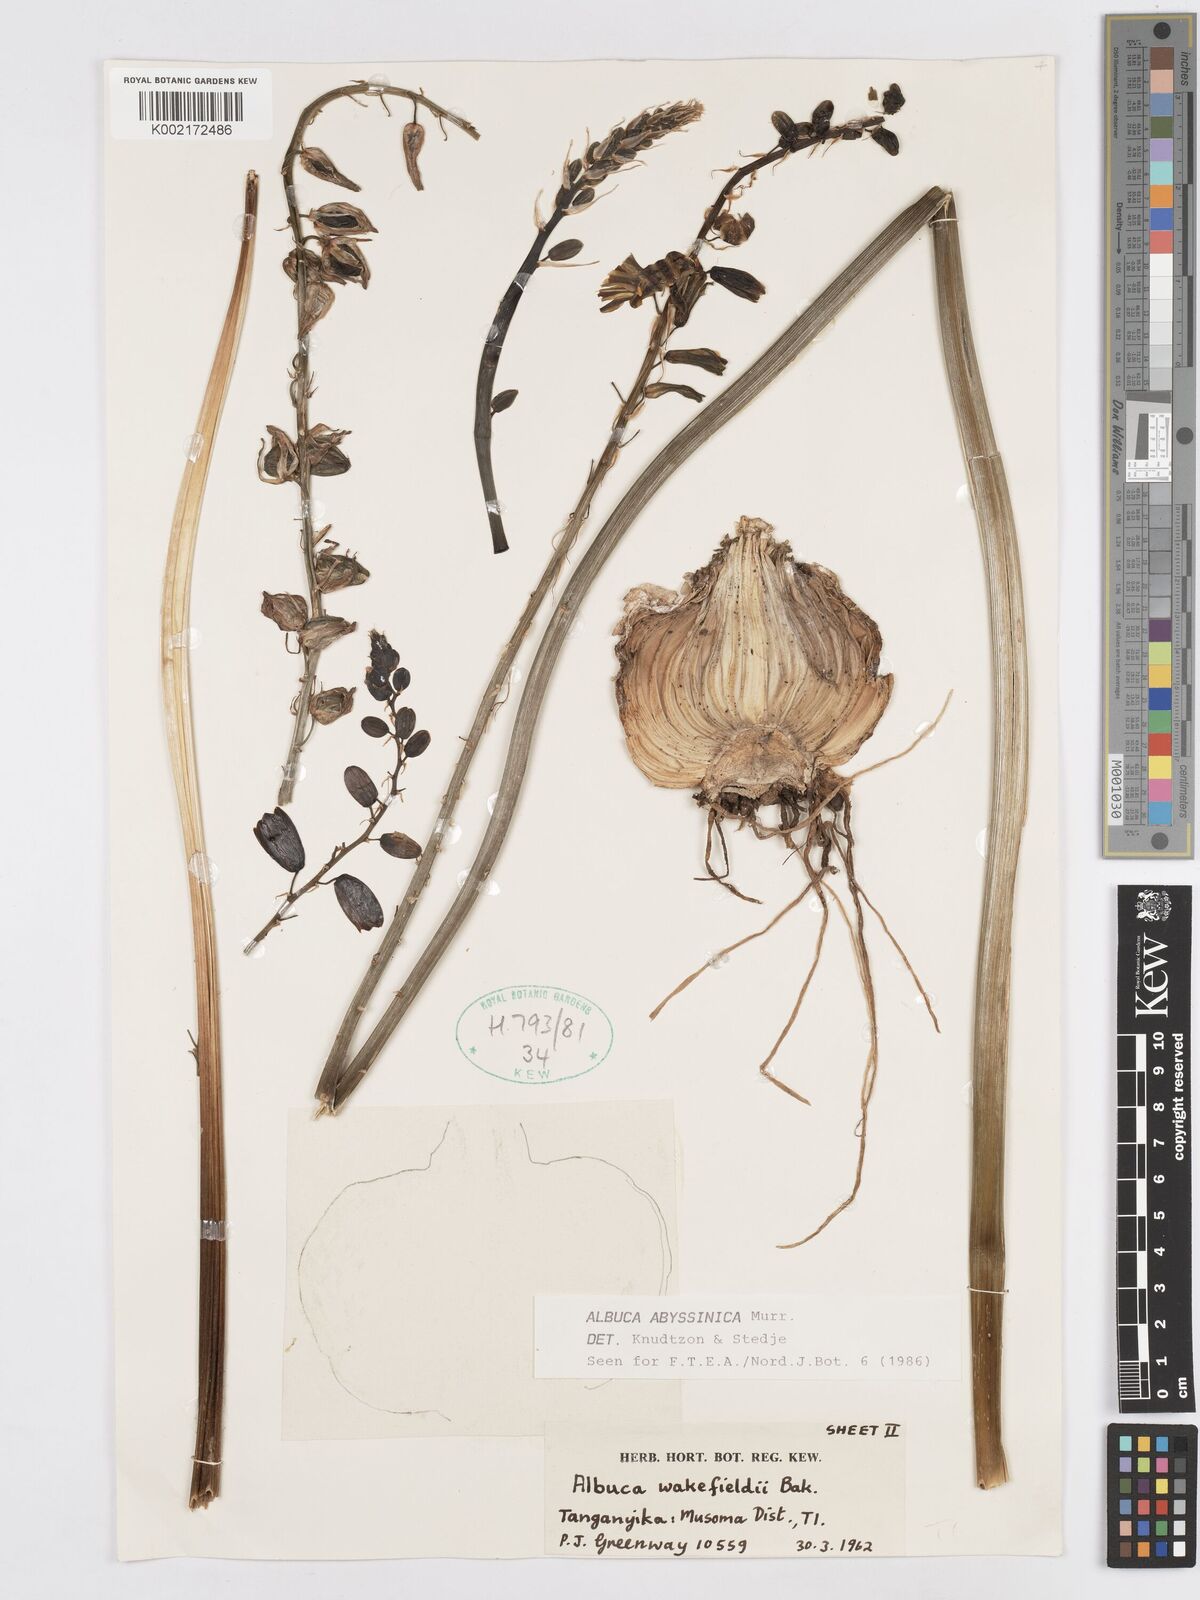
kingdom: Plantae
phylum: Tracheophyta
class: Liliopsida
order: Asparagales
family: Asparagaceae
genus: Albuca
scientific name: Albuca abyssinica
